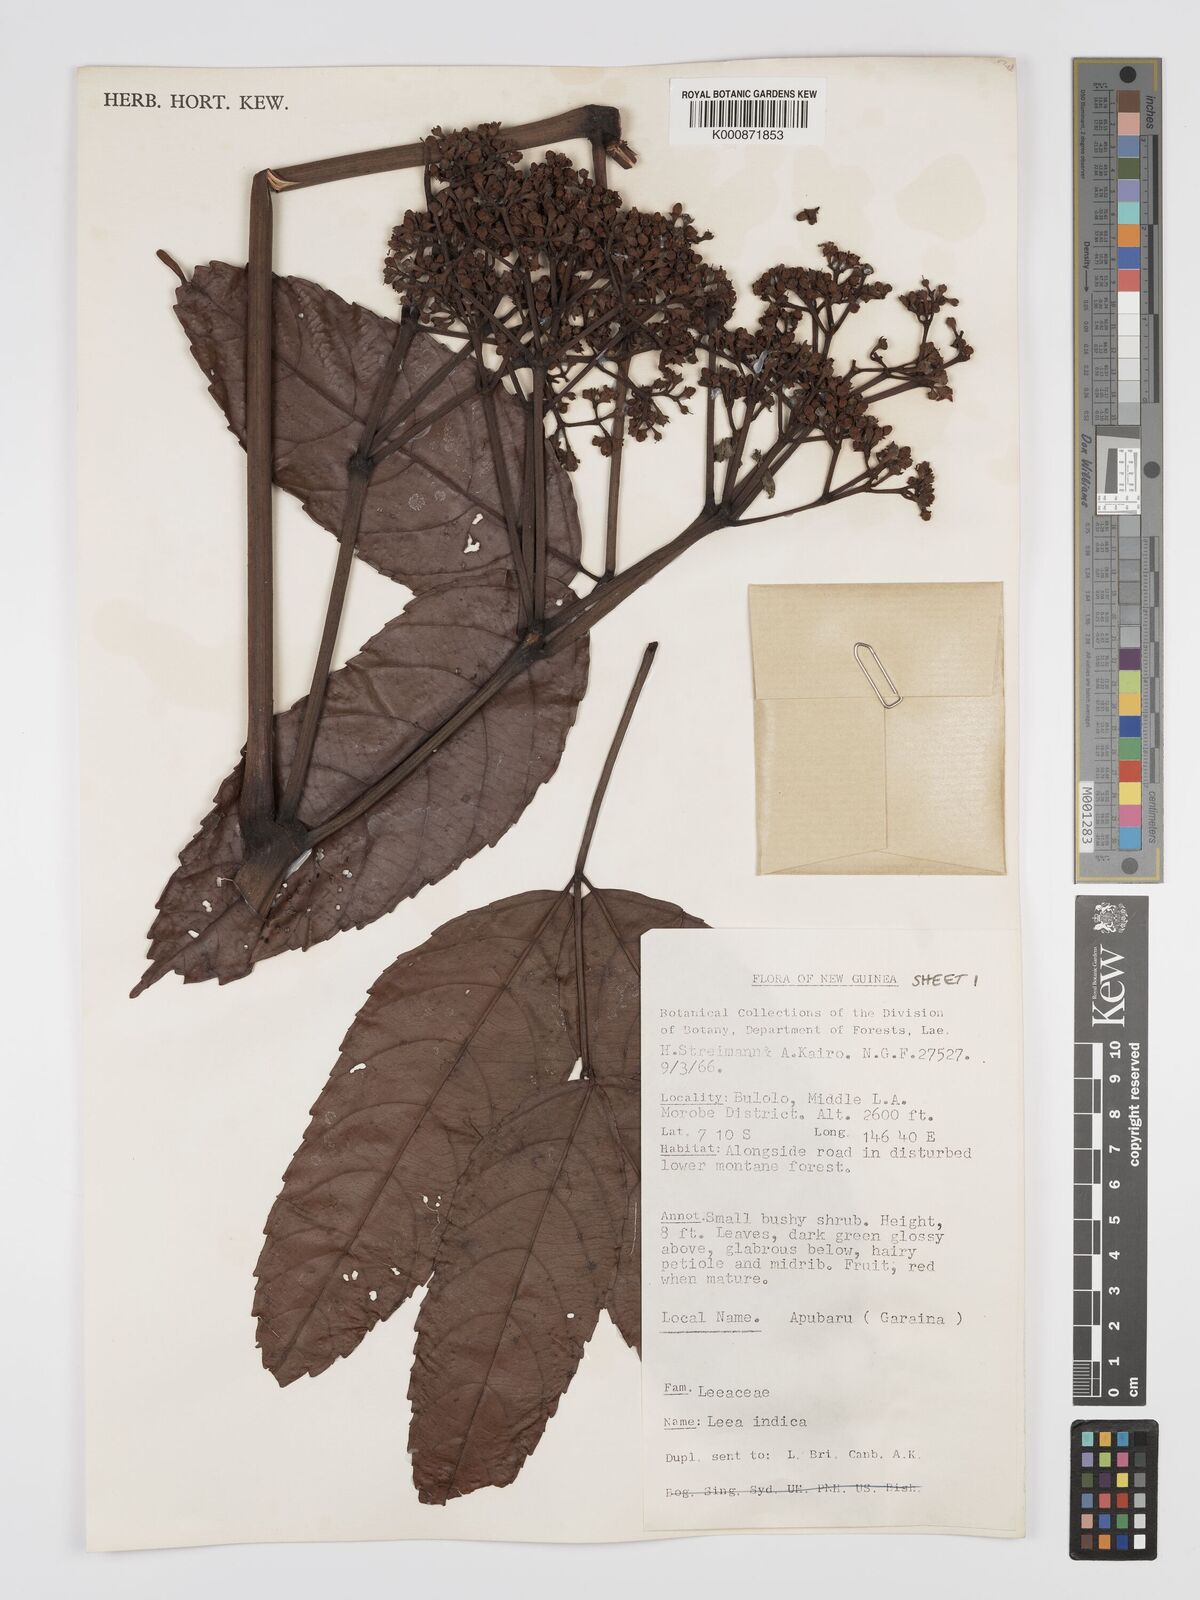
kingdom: Plantae
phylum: Tracheophyta
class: Magnoliopsida
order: Vitales
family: Vitaceae
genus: Leea
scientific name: Leea indica
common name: Bandicoot-berry
